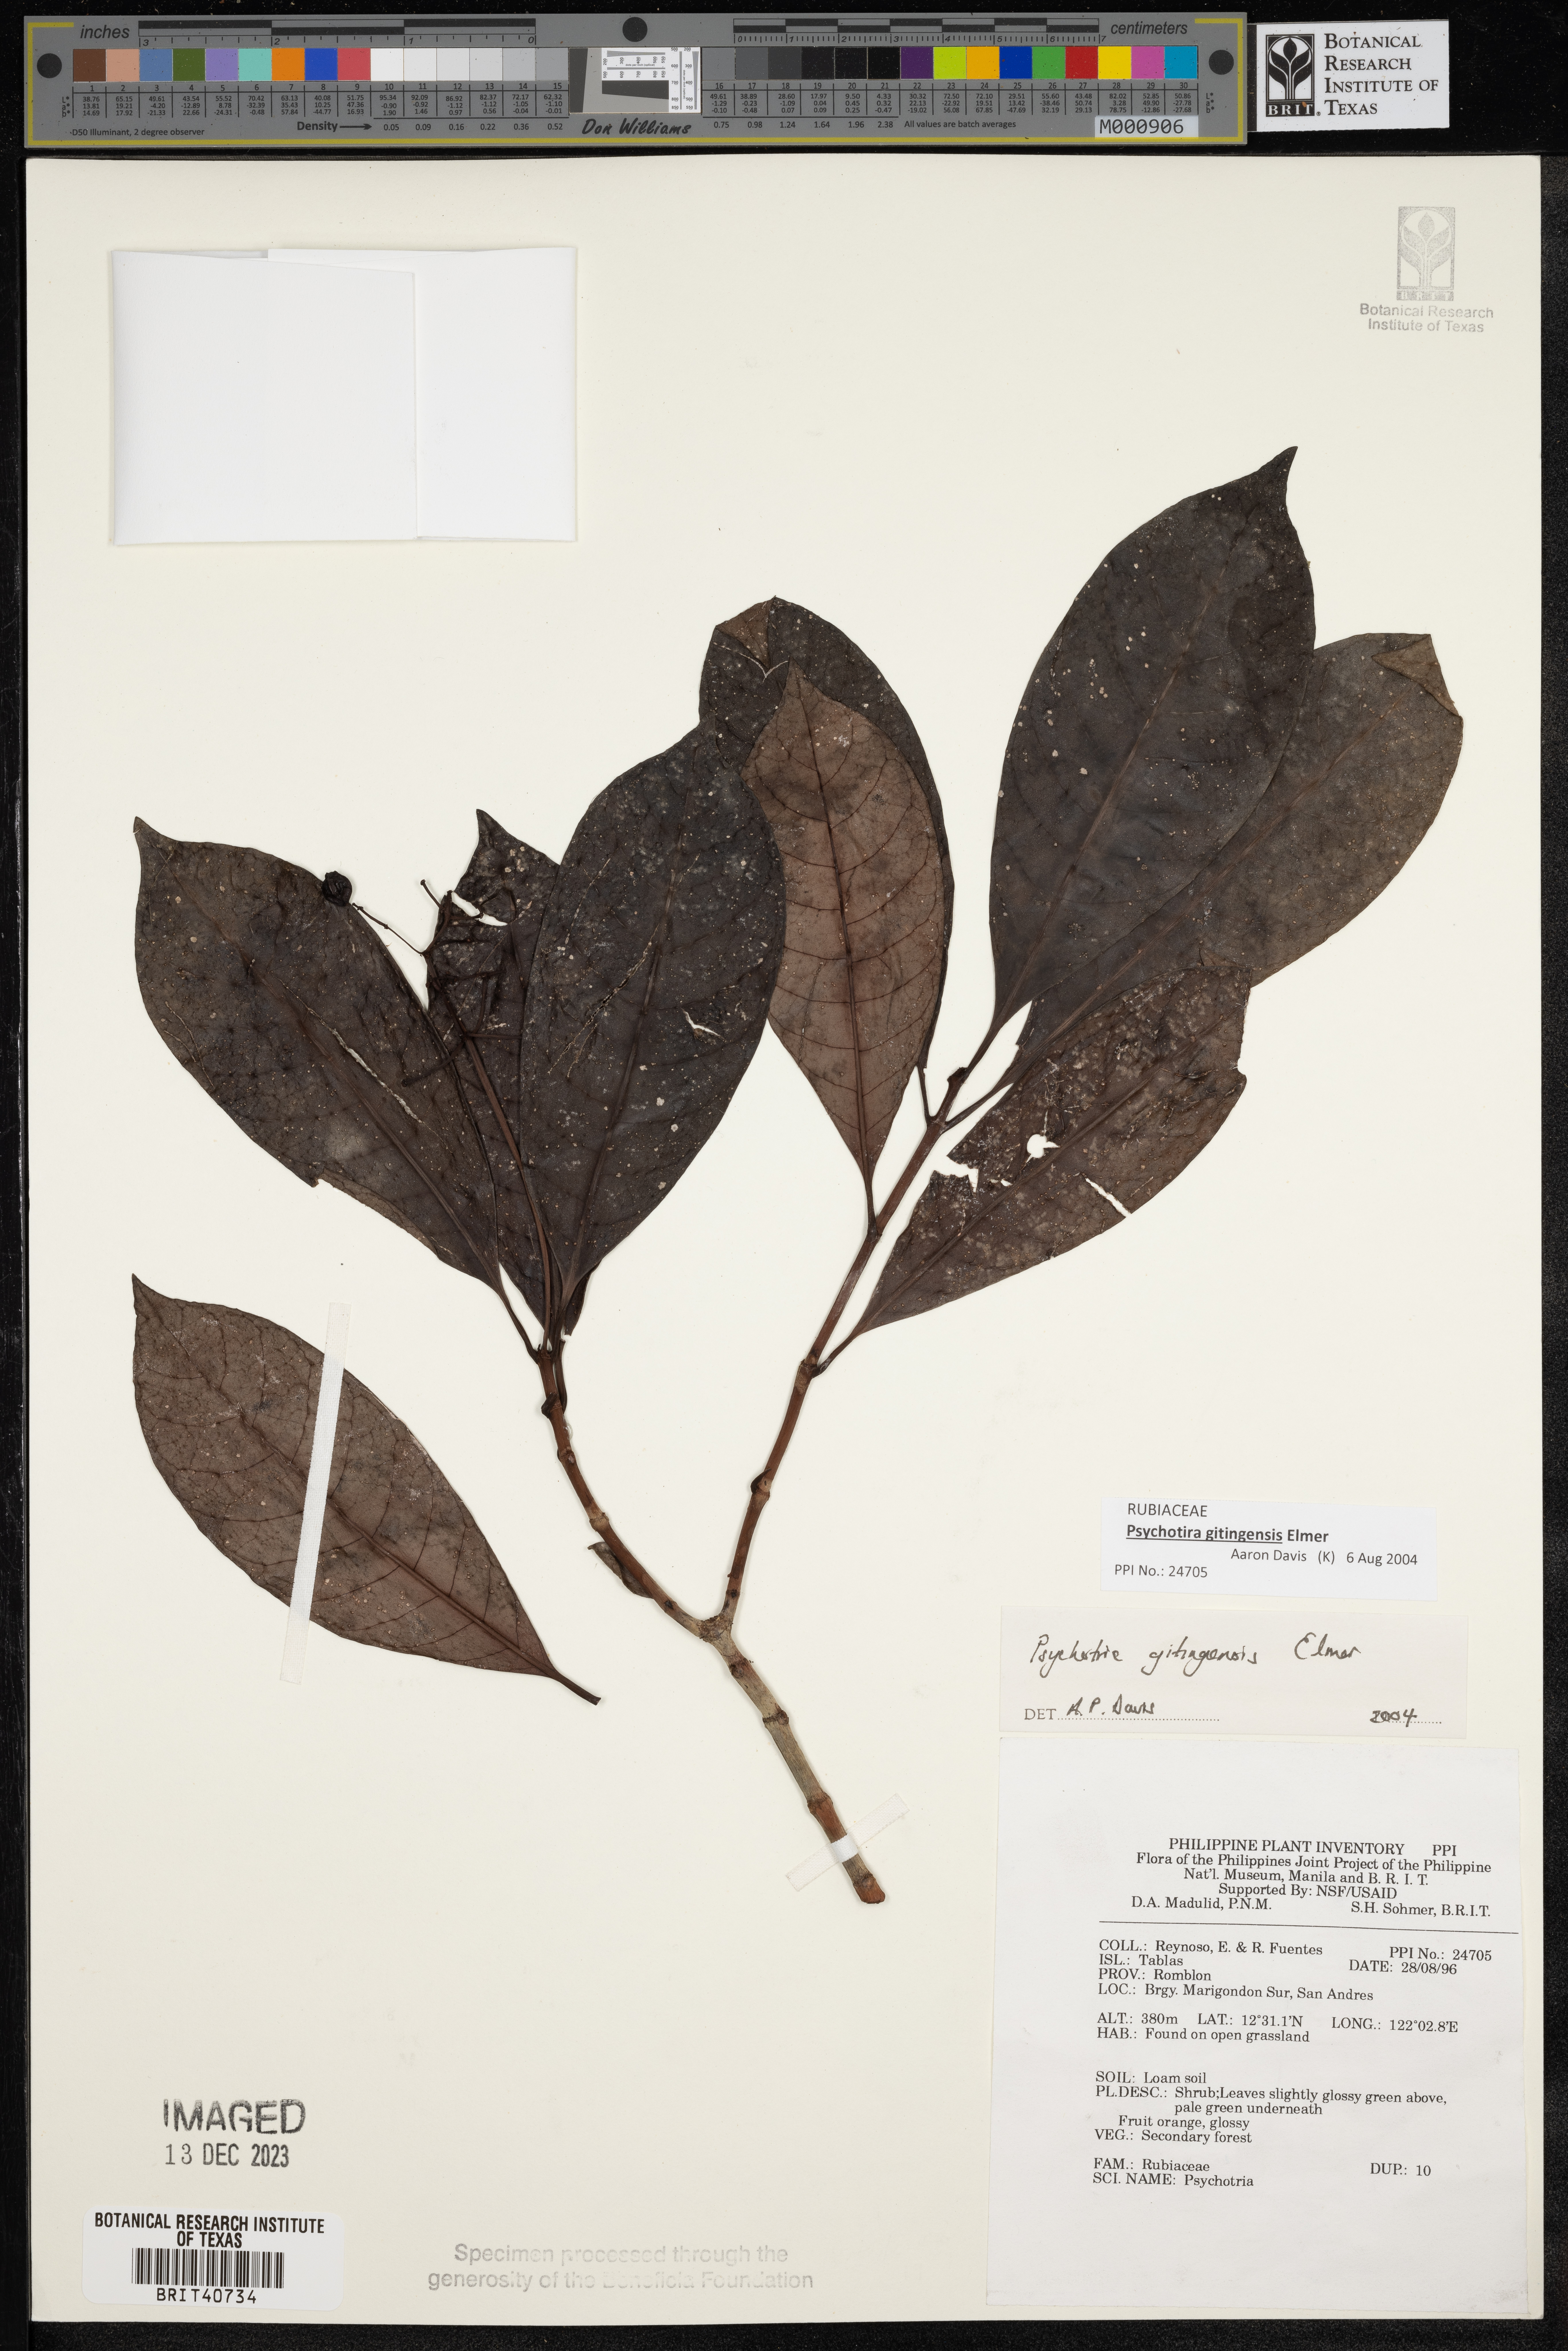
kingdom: Plantae
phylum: Tracheophyta
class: Magnoliopsida
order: Gentianales
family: Rubiaceae
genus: Psychotria
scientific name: Psychotria gitingensis
